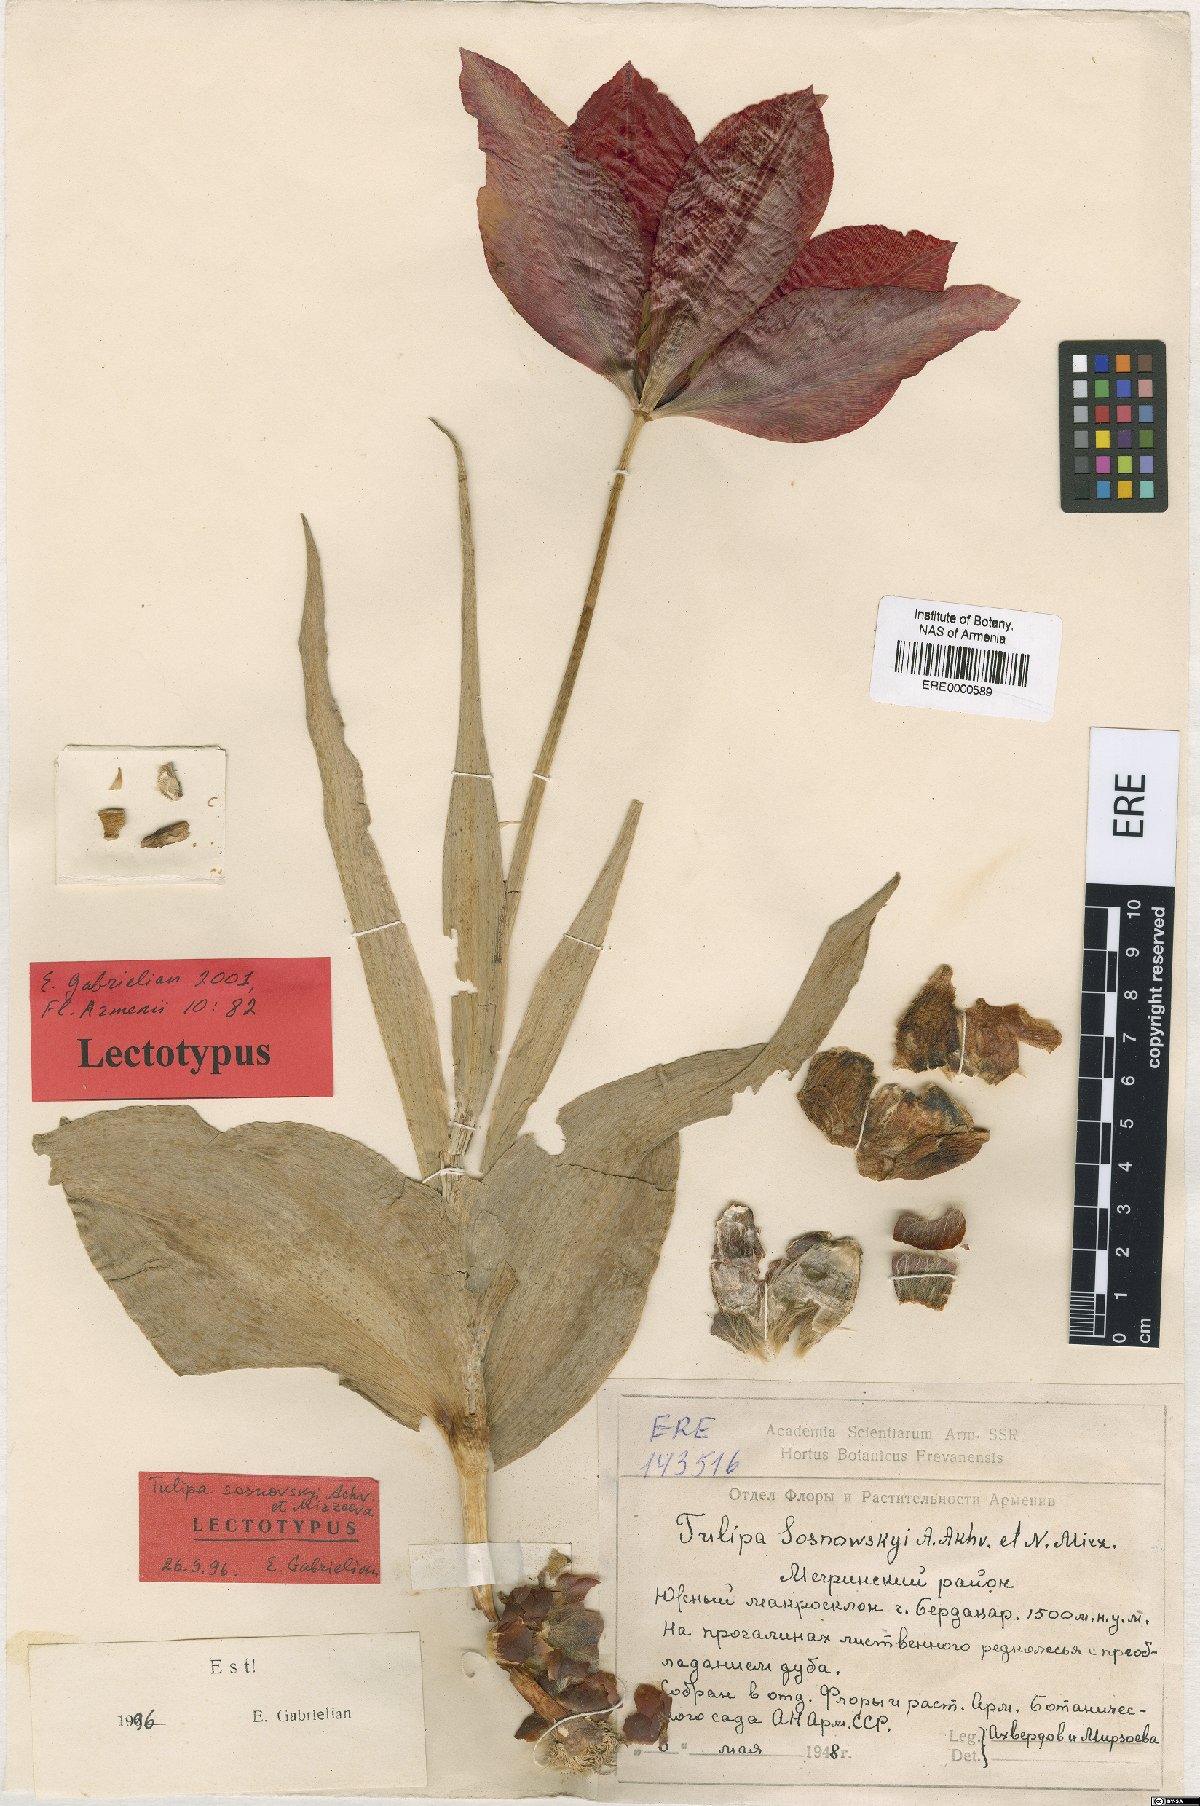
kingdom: Plantae
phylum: Tracheophyta
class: Liliopsida
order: Liliales
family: Liliaceae
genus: Tulipa
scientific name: Tulipa sosnowskyi
